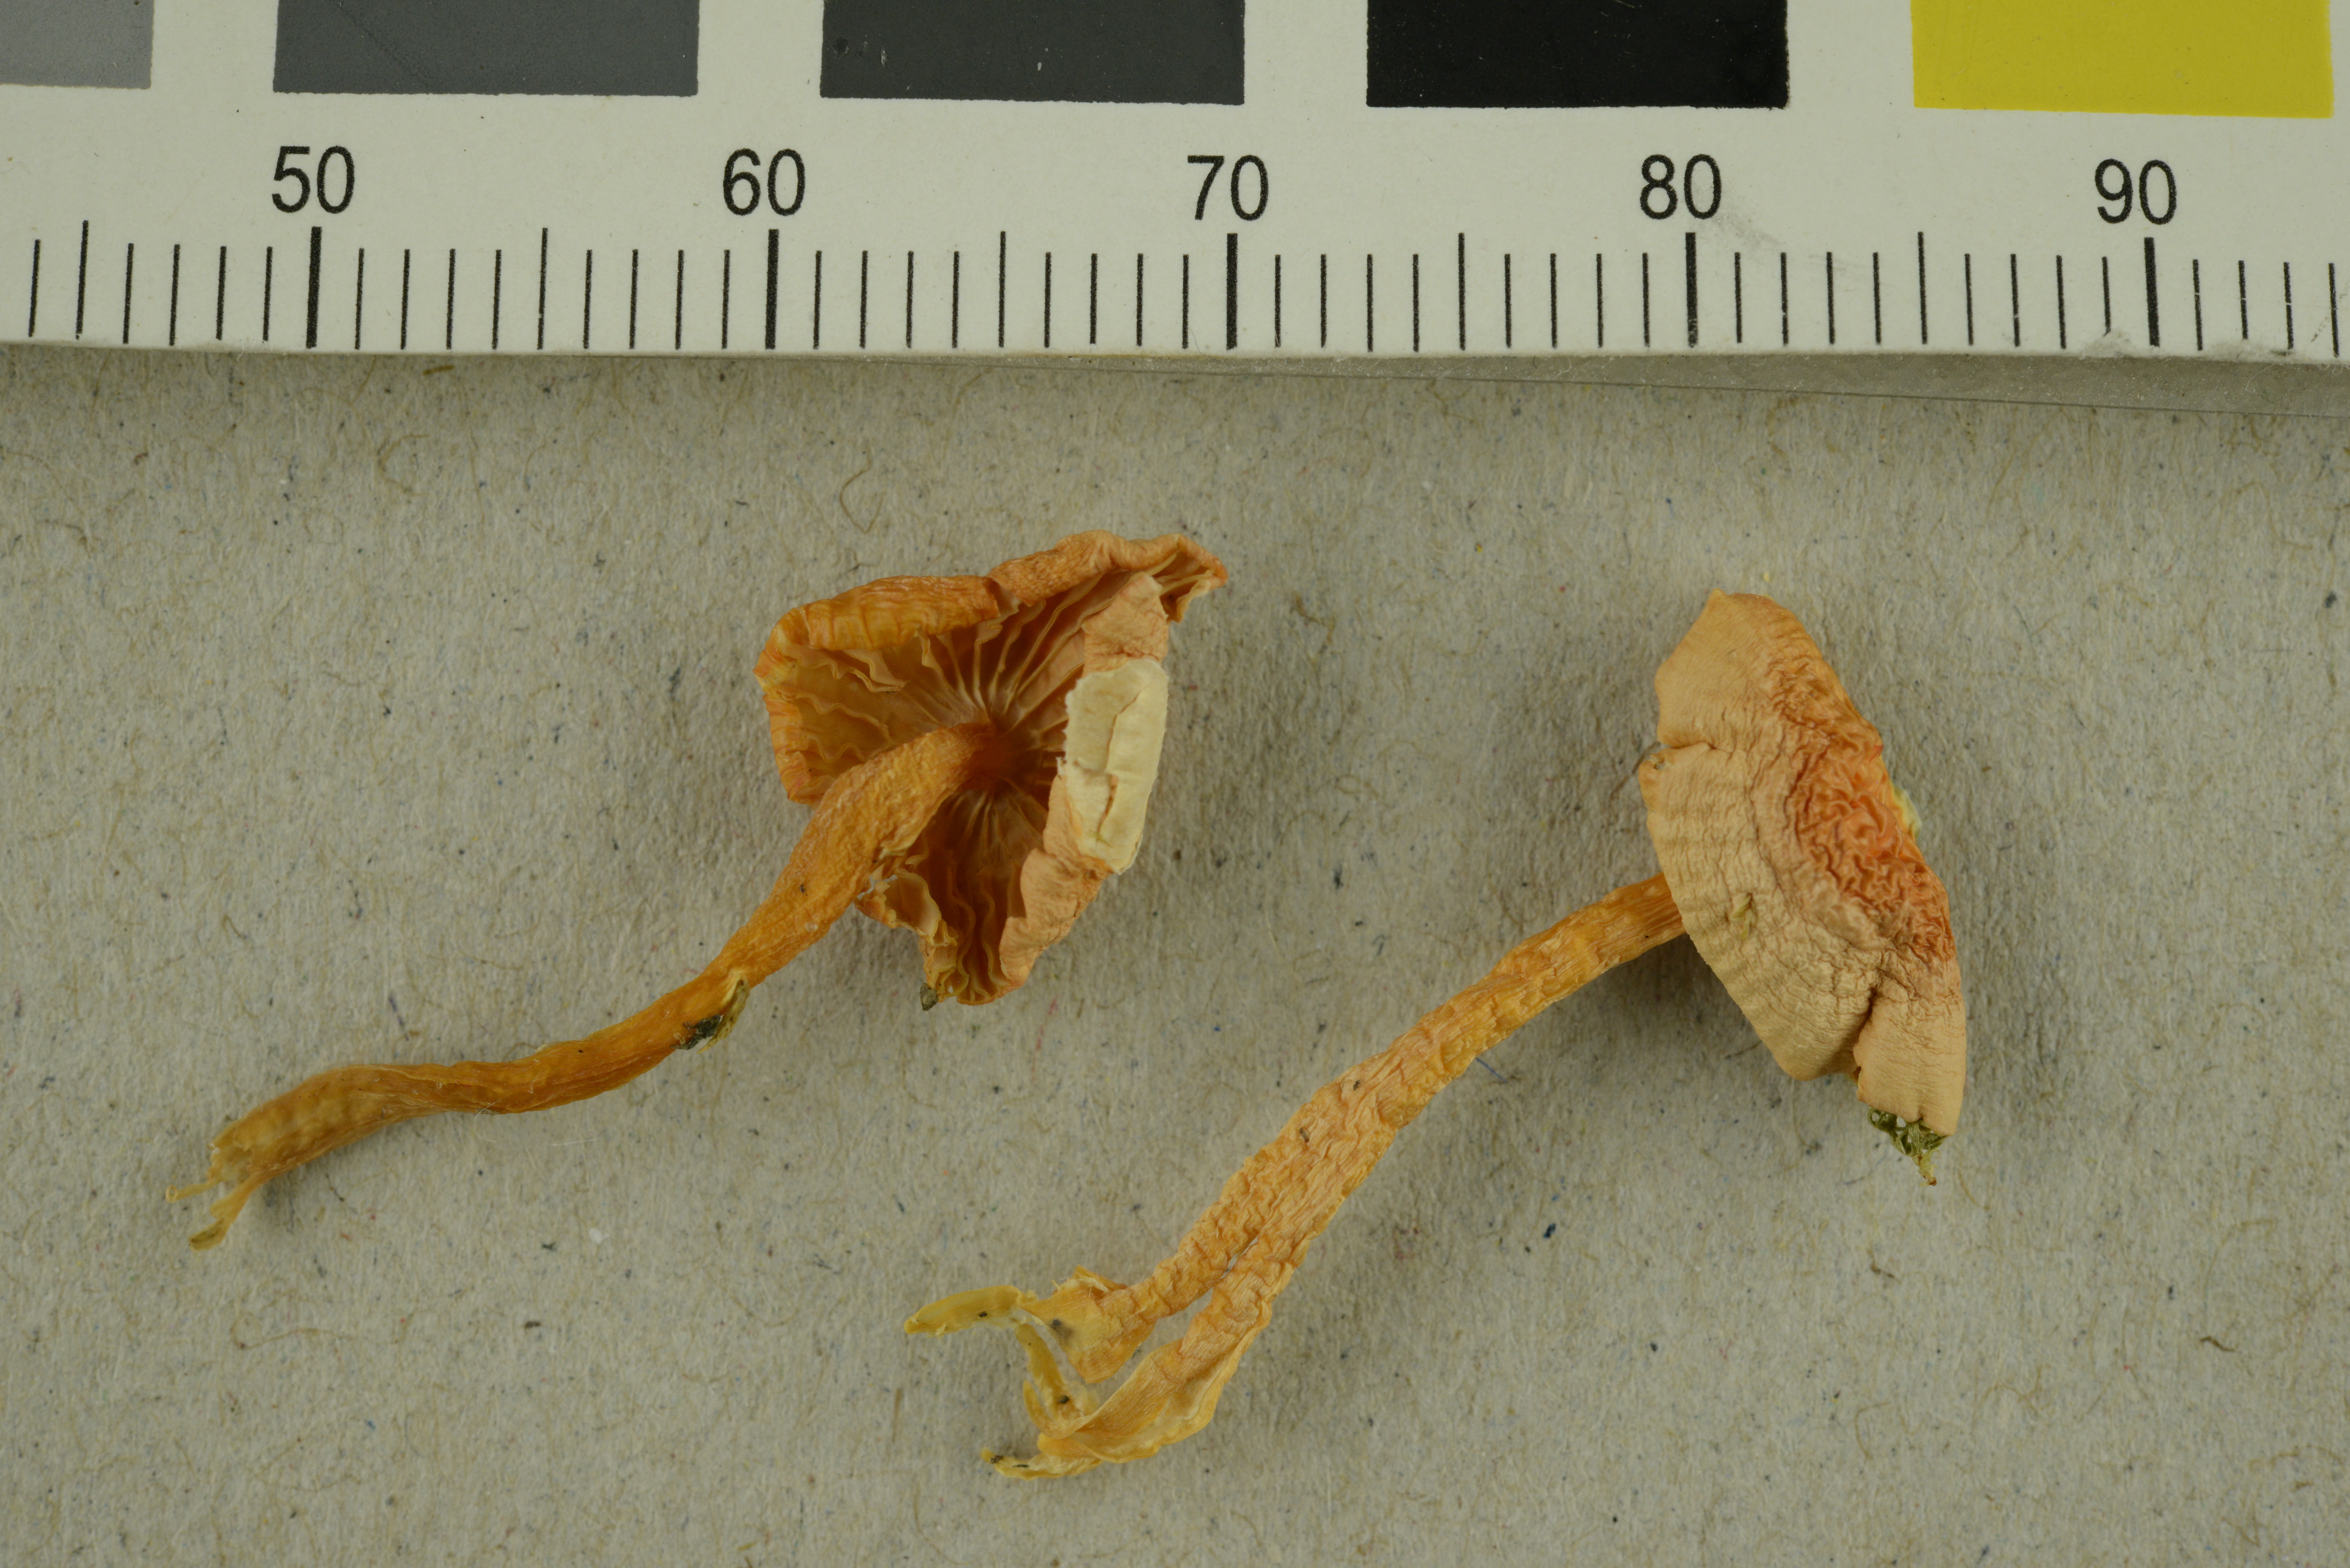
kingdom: Fungi
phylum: Basidiomycota
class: Agaricomycetes
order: Agaricales
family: Hygrophoraceae
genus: Gliophorus
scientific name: Gliophorus psittacinus
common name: Parrot wax-cap
